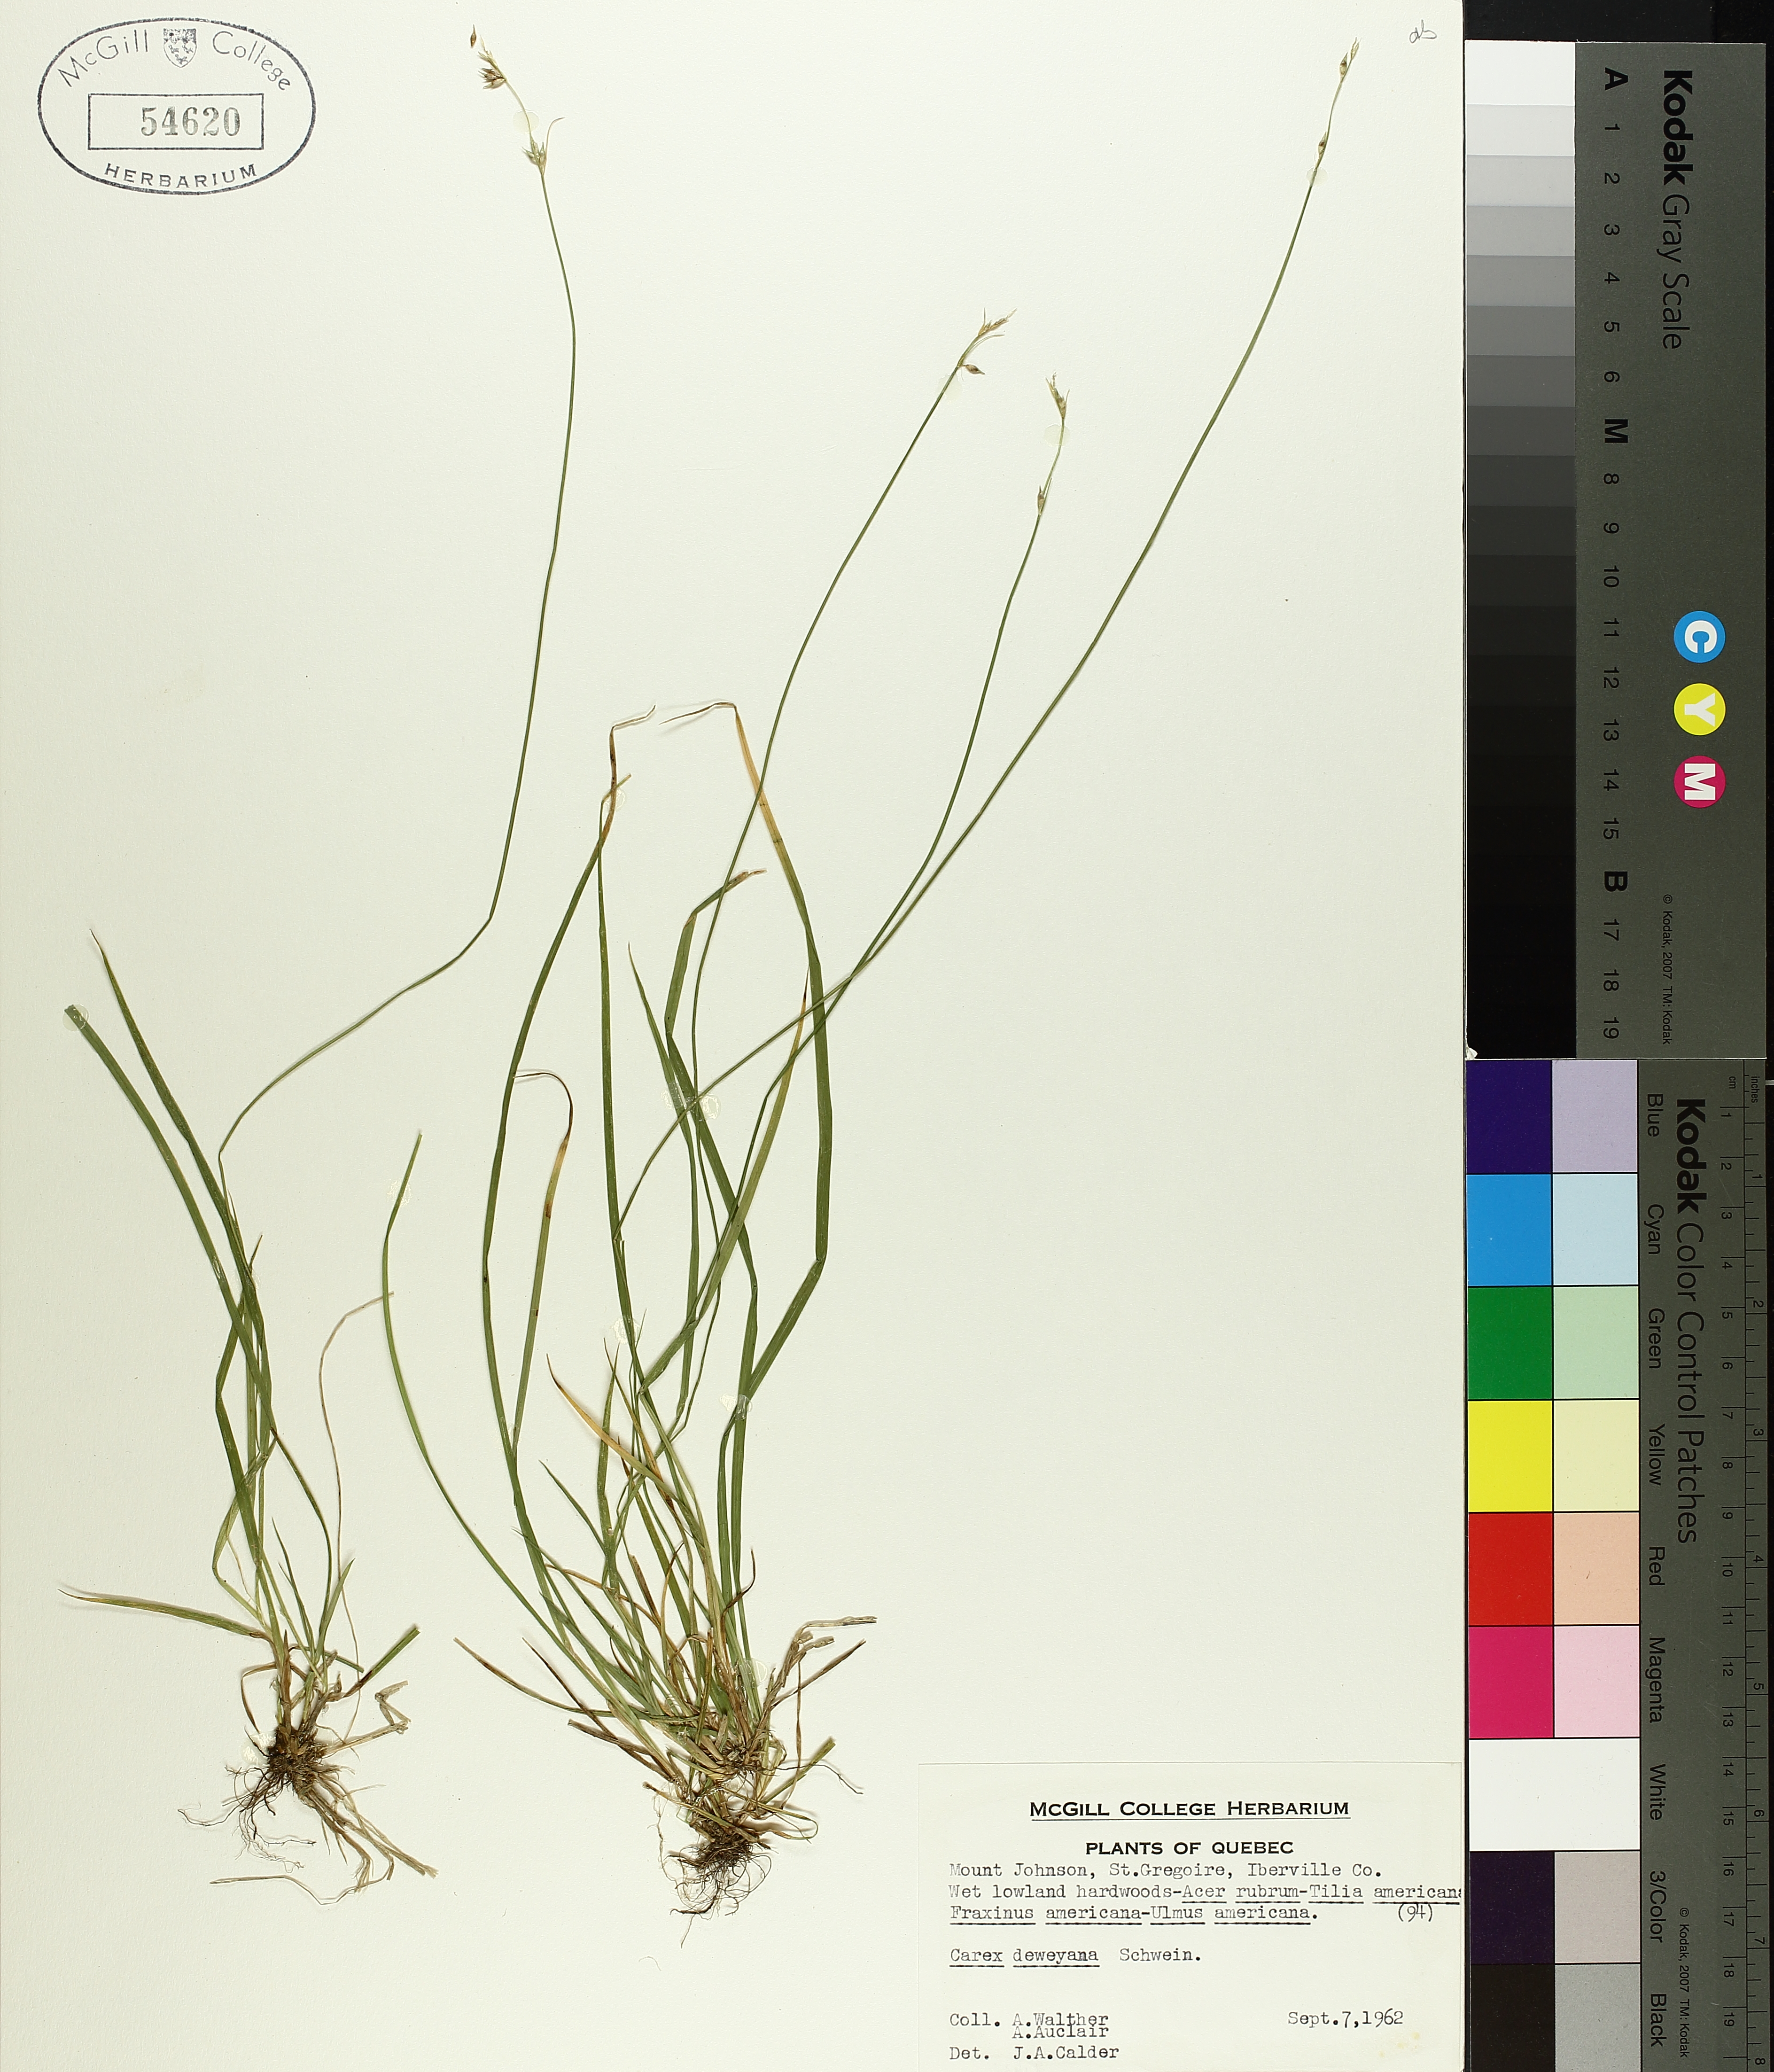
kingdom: Plantae
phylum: Tracheophyta
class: Liliopsida
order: Poales
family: Cyperaceae
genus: Carex
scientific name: Carex deweyana
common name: Dewey's sedge
